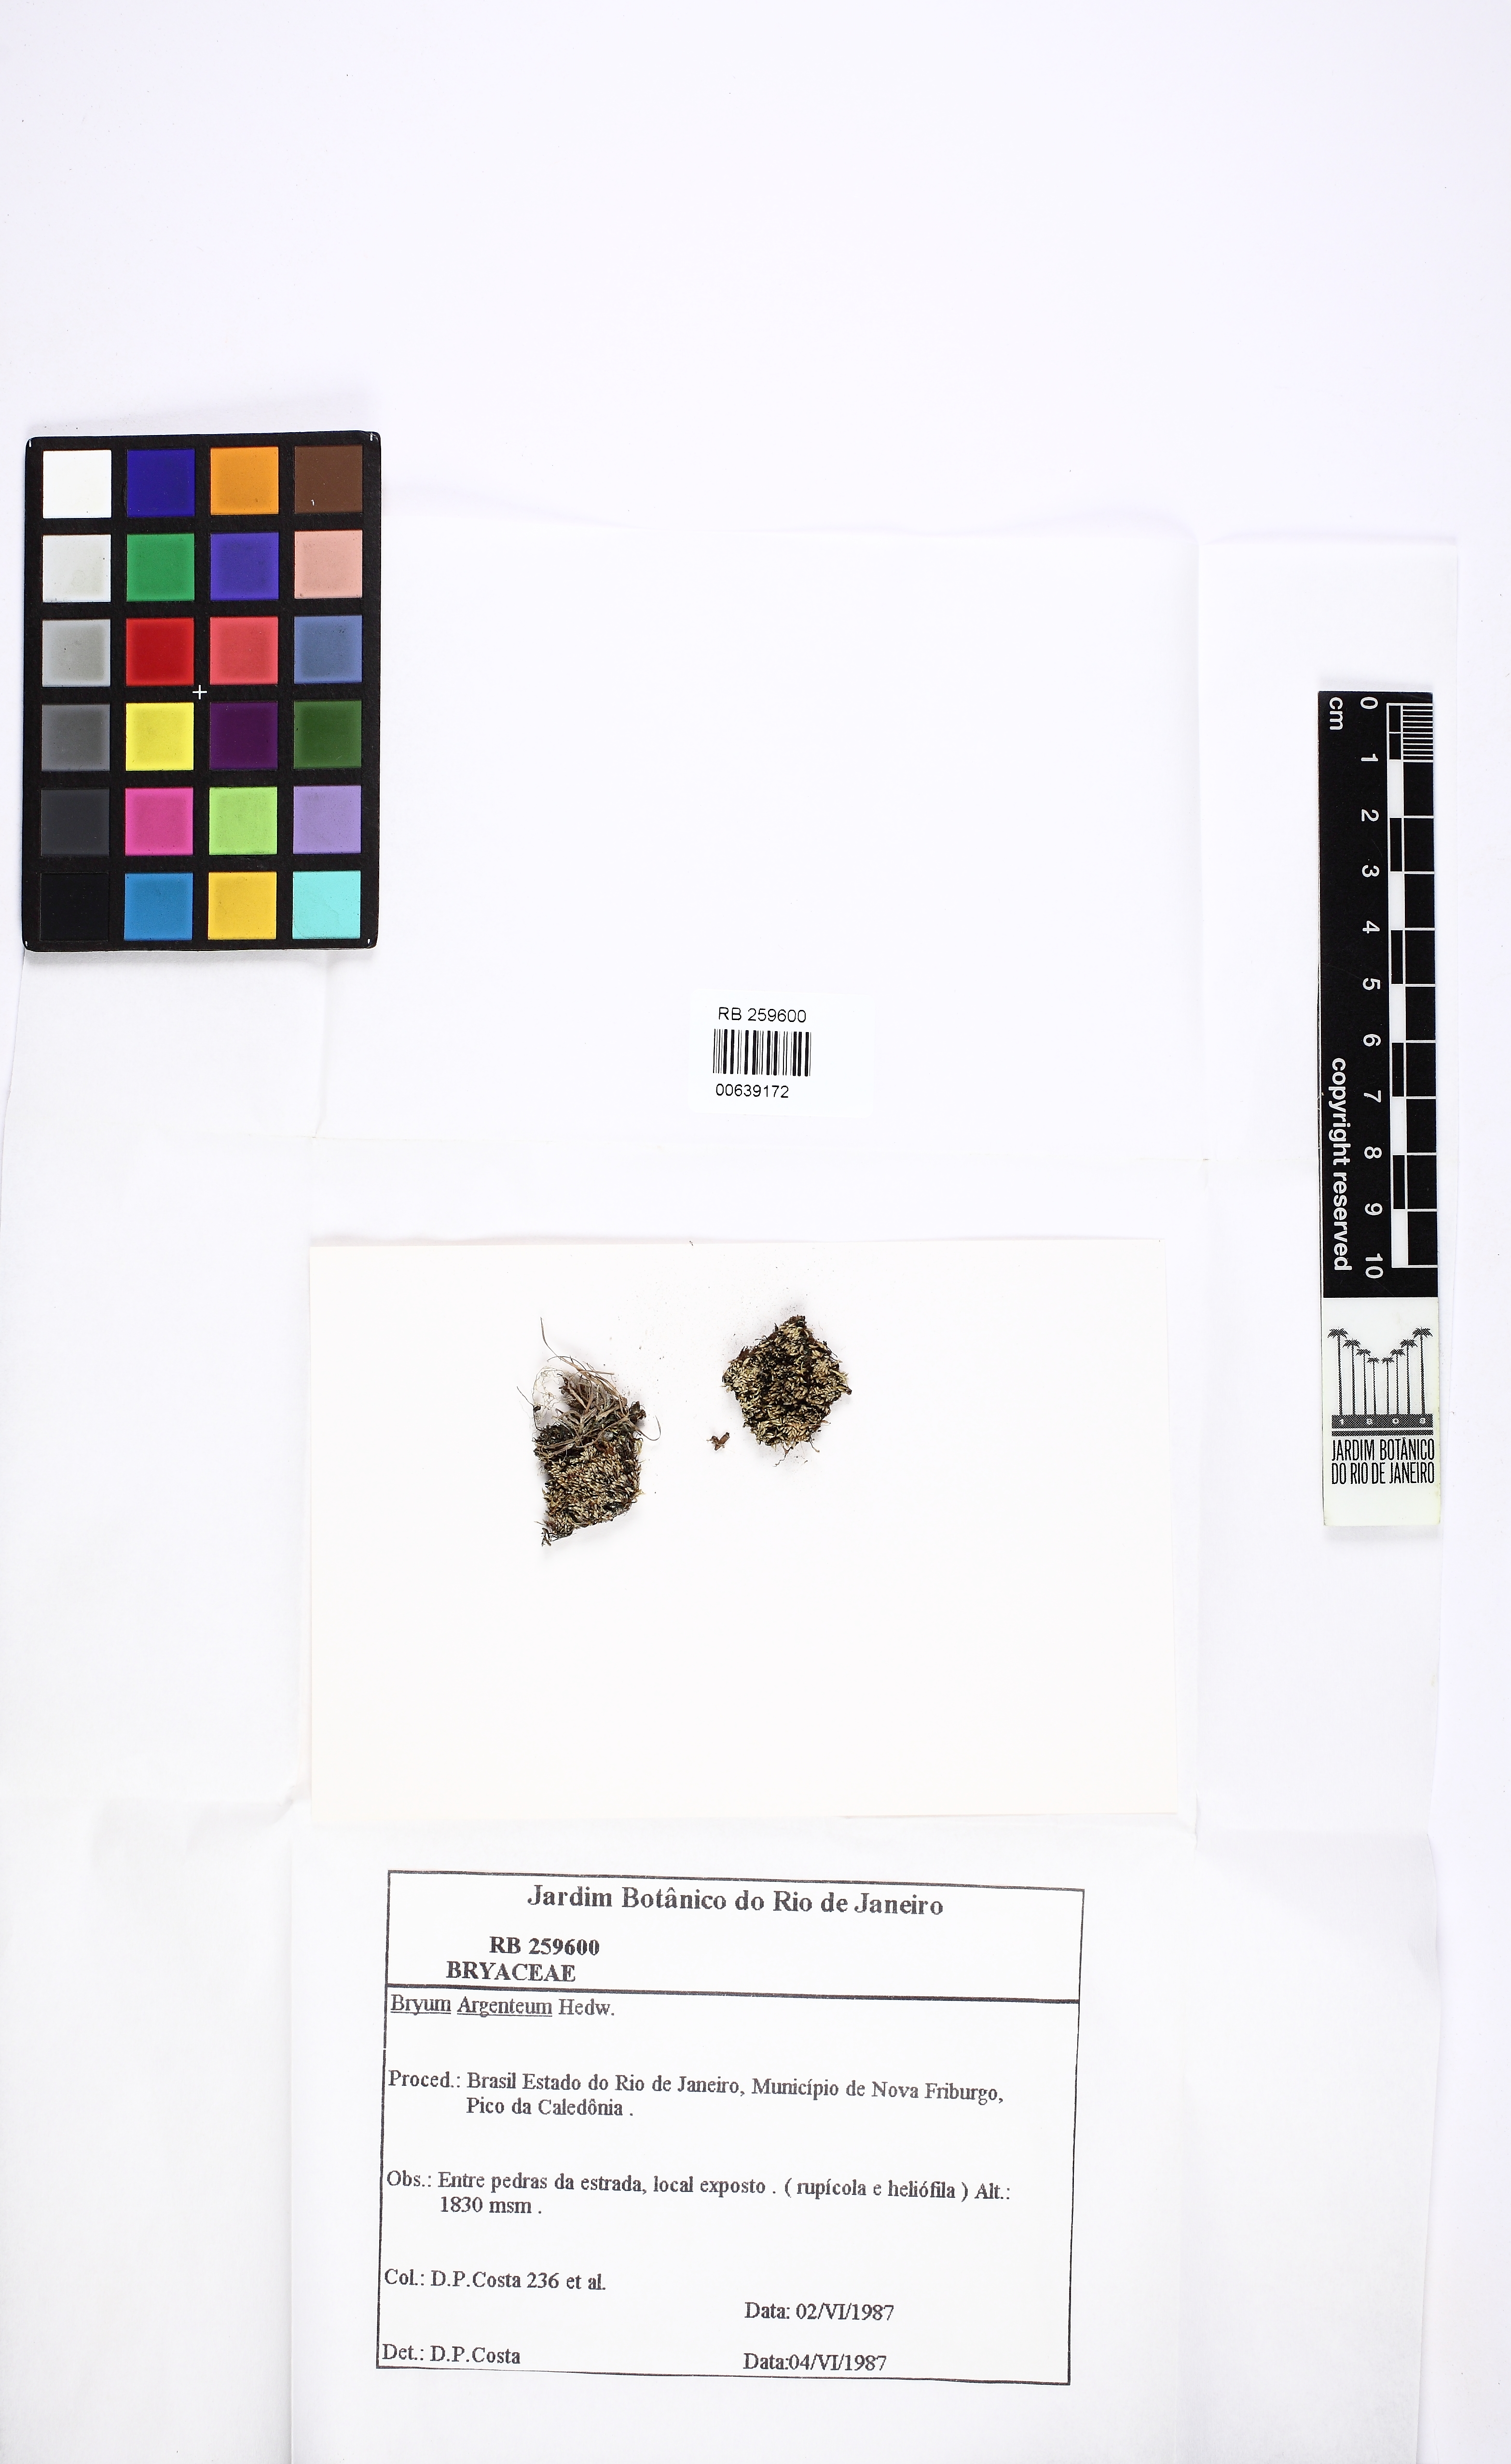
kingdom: Plantae
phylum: Bryophyta
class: Bryopsida
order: Bryales
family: Bryaceae
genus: Bryum
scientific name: Bryum argenteum
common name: Silver-moss
